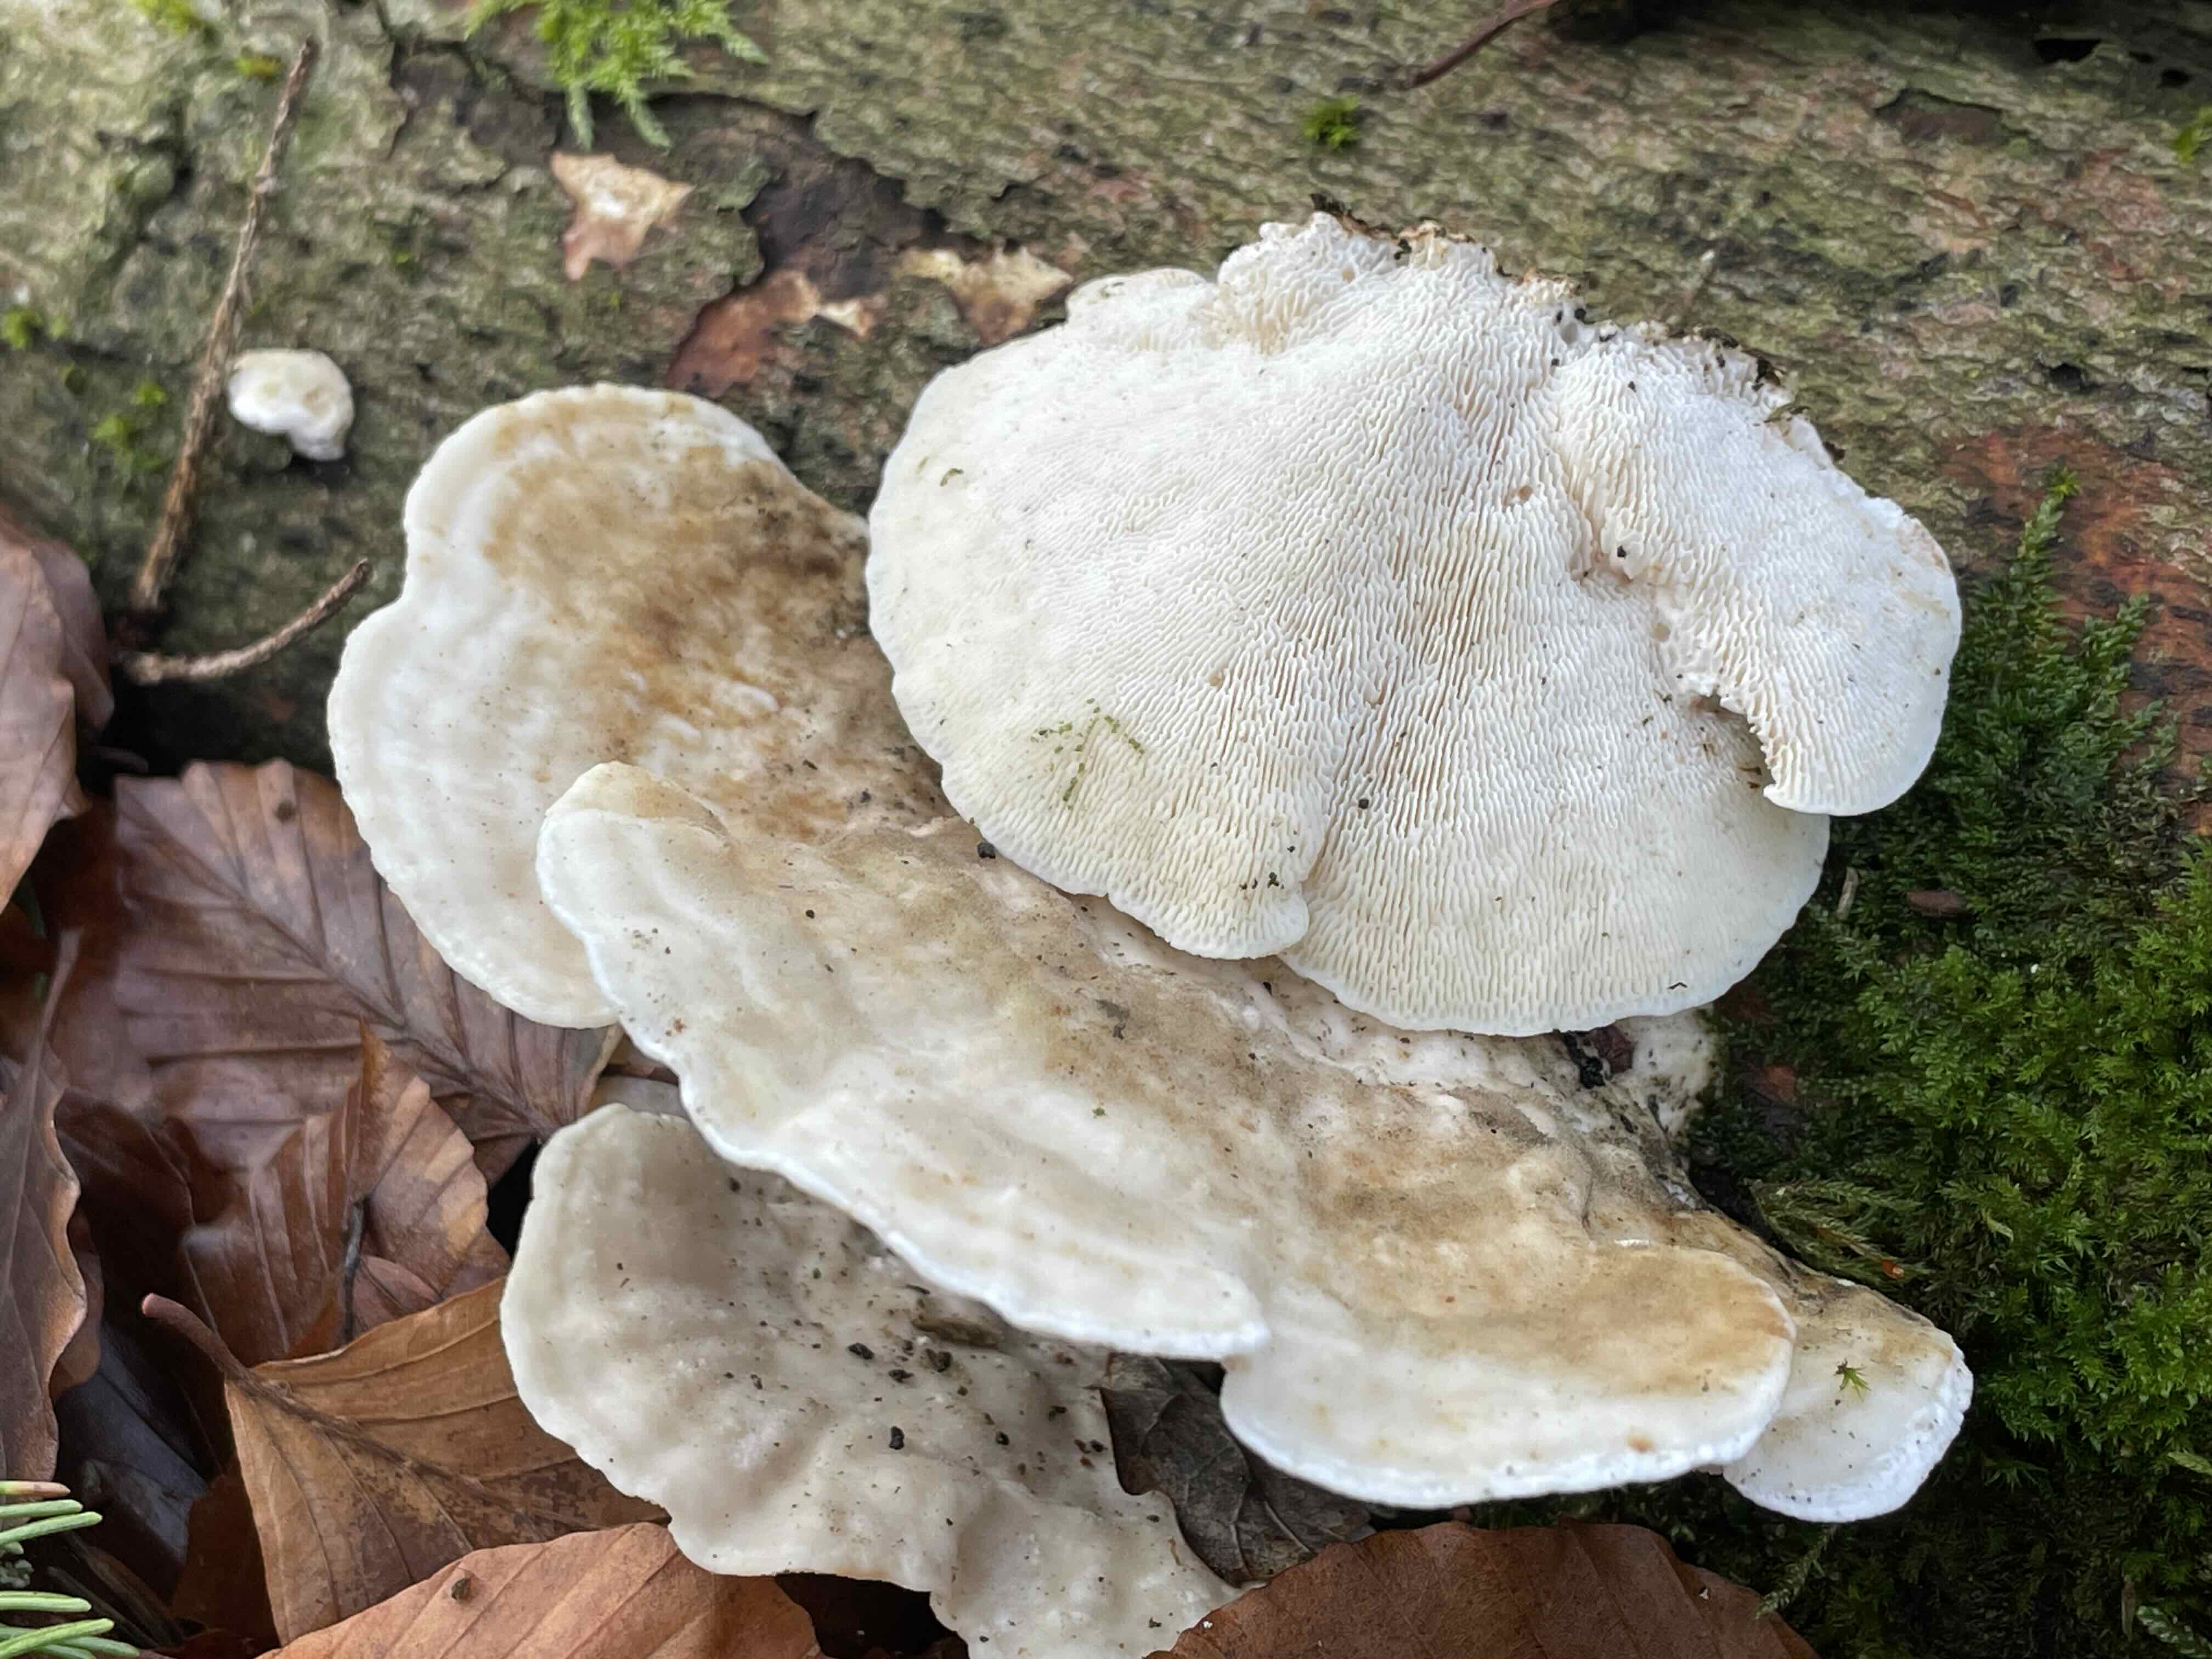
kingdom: Fungi
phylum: Basidiomycota
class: Agaricomycetes
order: Polyporales
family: Polyporaceae
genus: Trametes
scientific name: Trametes gibbosa
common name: puklet læderporesvamp
